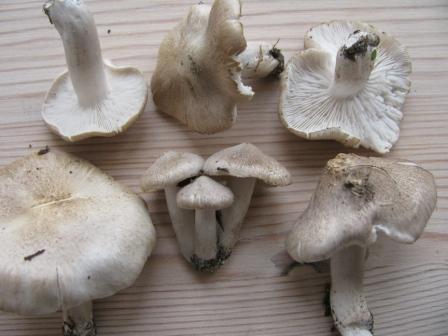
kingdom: Fungi
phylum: Basidiomycota
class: Agaricomycetes
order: Agaricales
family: Tricholomataceae
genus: Tricholoma
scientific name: Tricholoma argyraceum
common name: spids ridderhat
